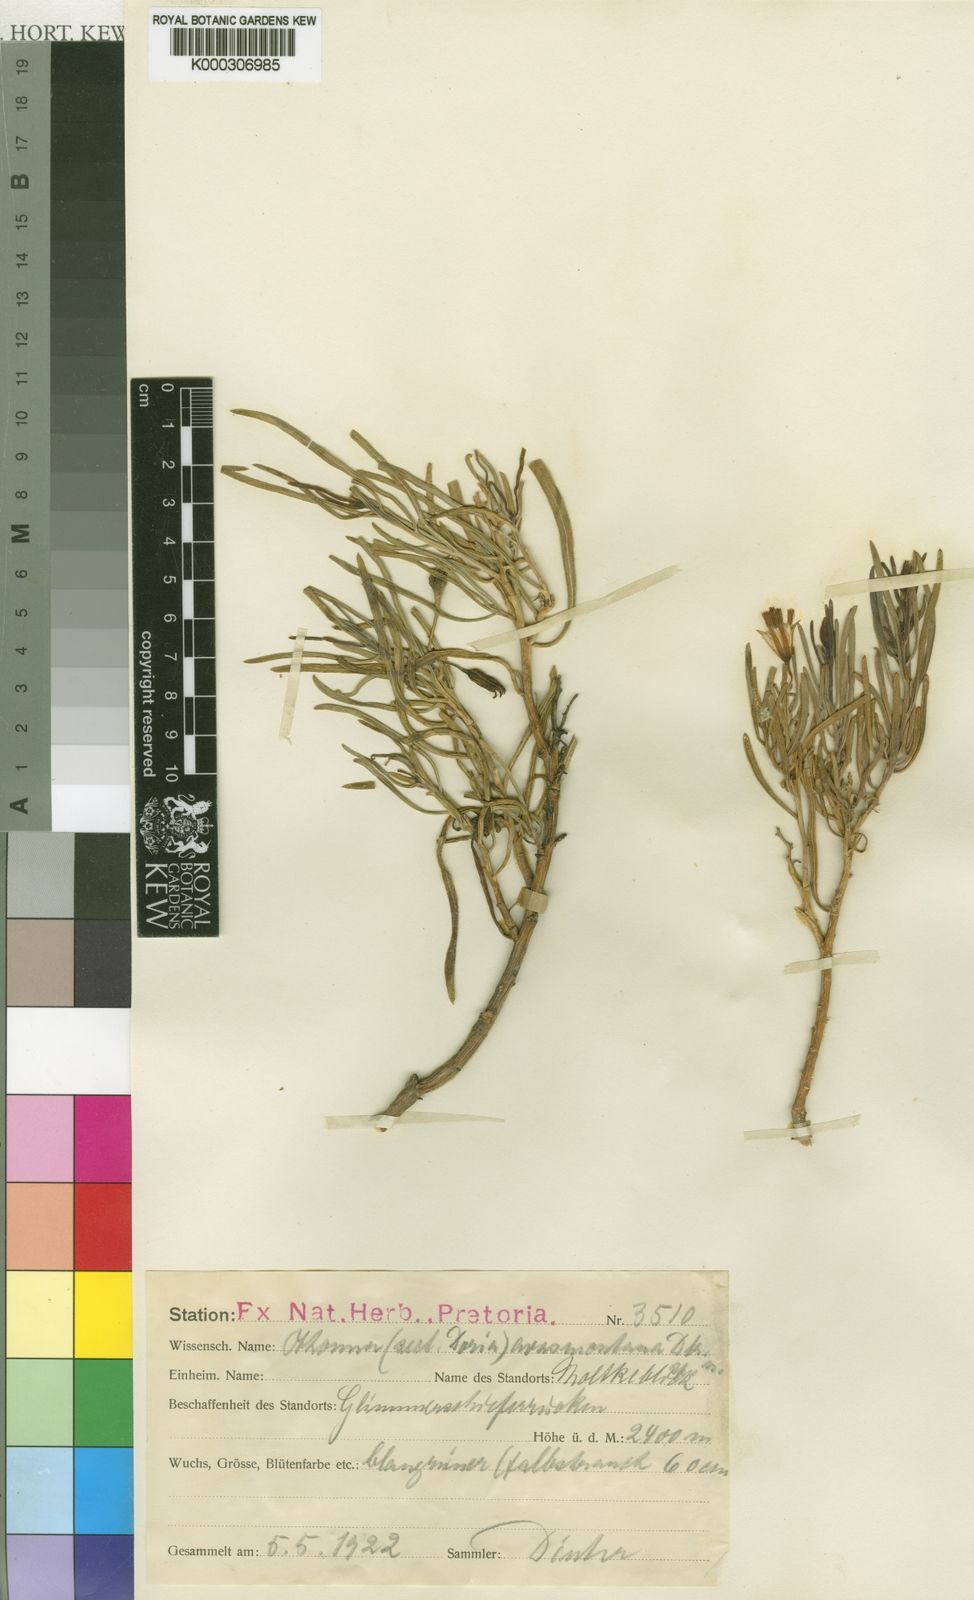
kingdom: Plantae
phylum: Tracheophyta
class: Magnoliopsida
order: Asterales
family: Asteraceae
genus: Curio
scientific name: Curio avasimontanus
